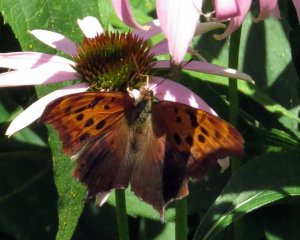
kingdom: Animalia
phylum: Arthropoda
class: Insecta
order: Lepidoptera
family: Nymphalidae
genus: Polygonia
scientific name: Polygonia interrogationis
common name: Question Mark
